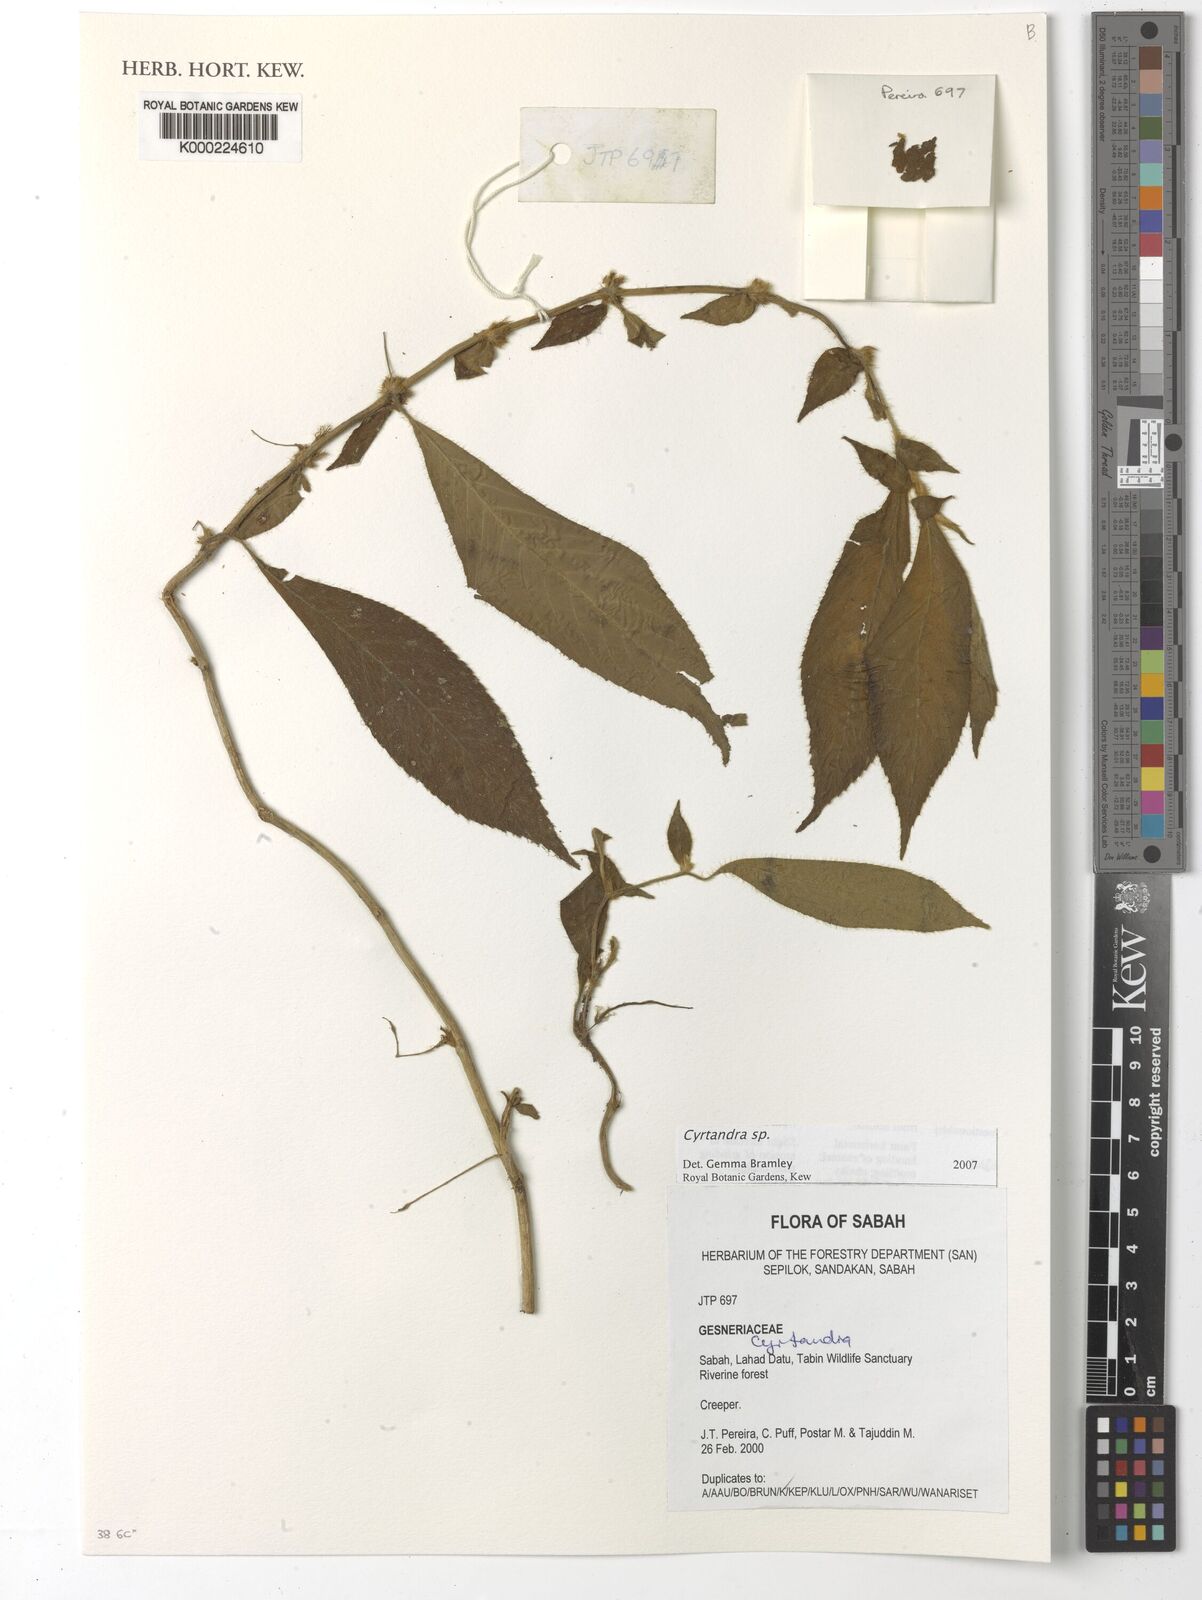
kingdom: Plantae
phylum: Tracheophyta
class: Magnoliopsida
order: Lamiales
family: Gesneriaceae
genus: Cyrtandra
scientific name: Cyrtandra
